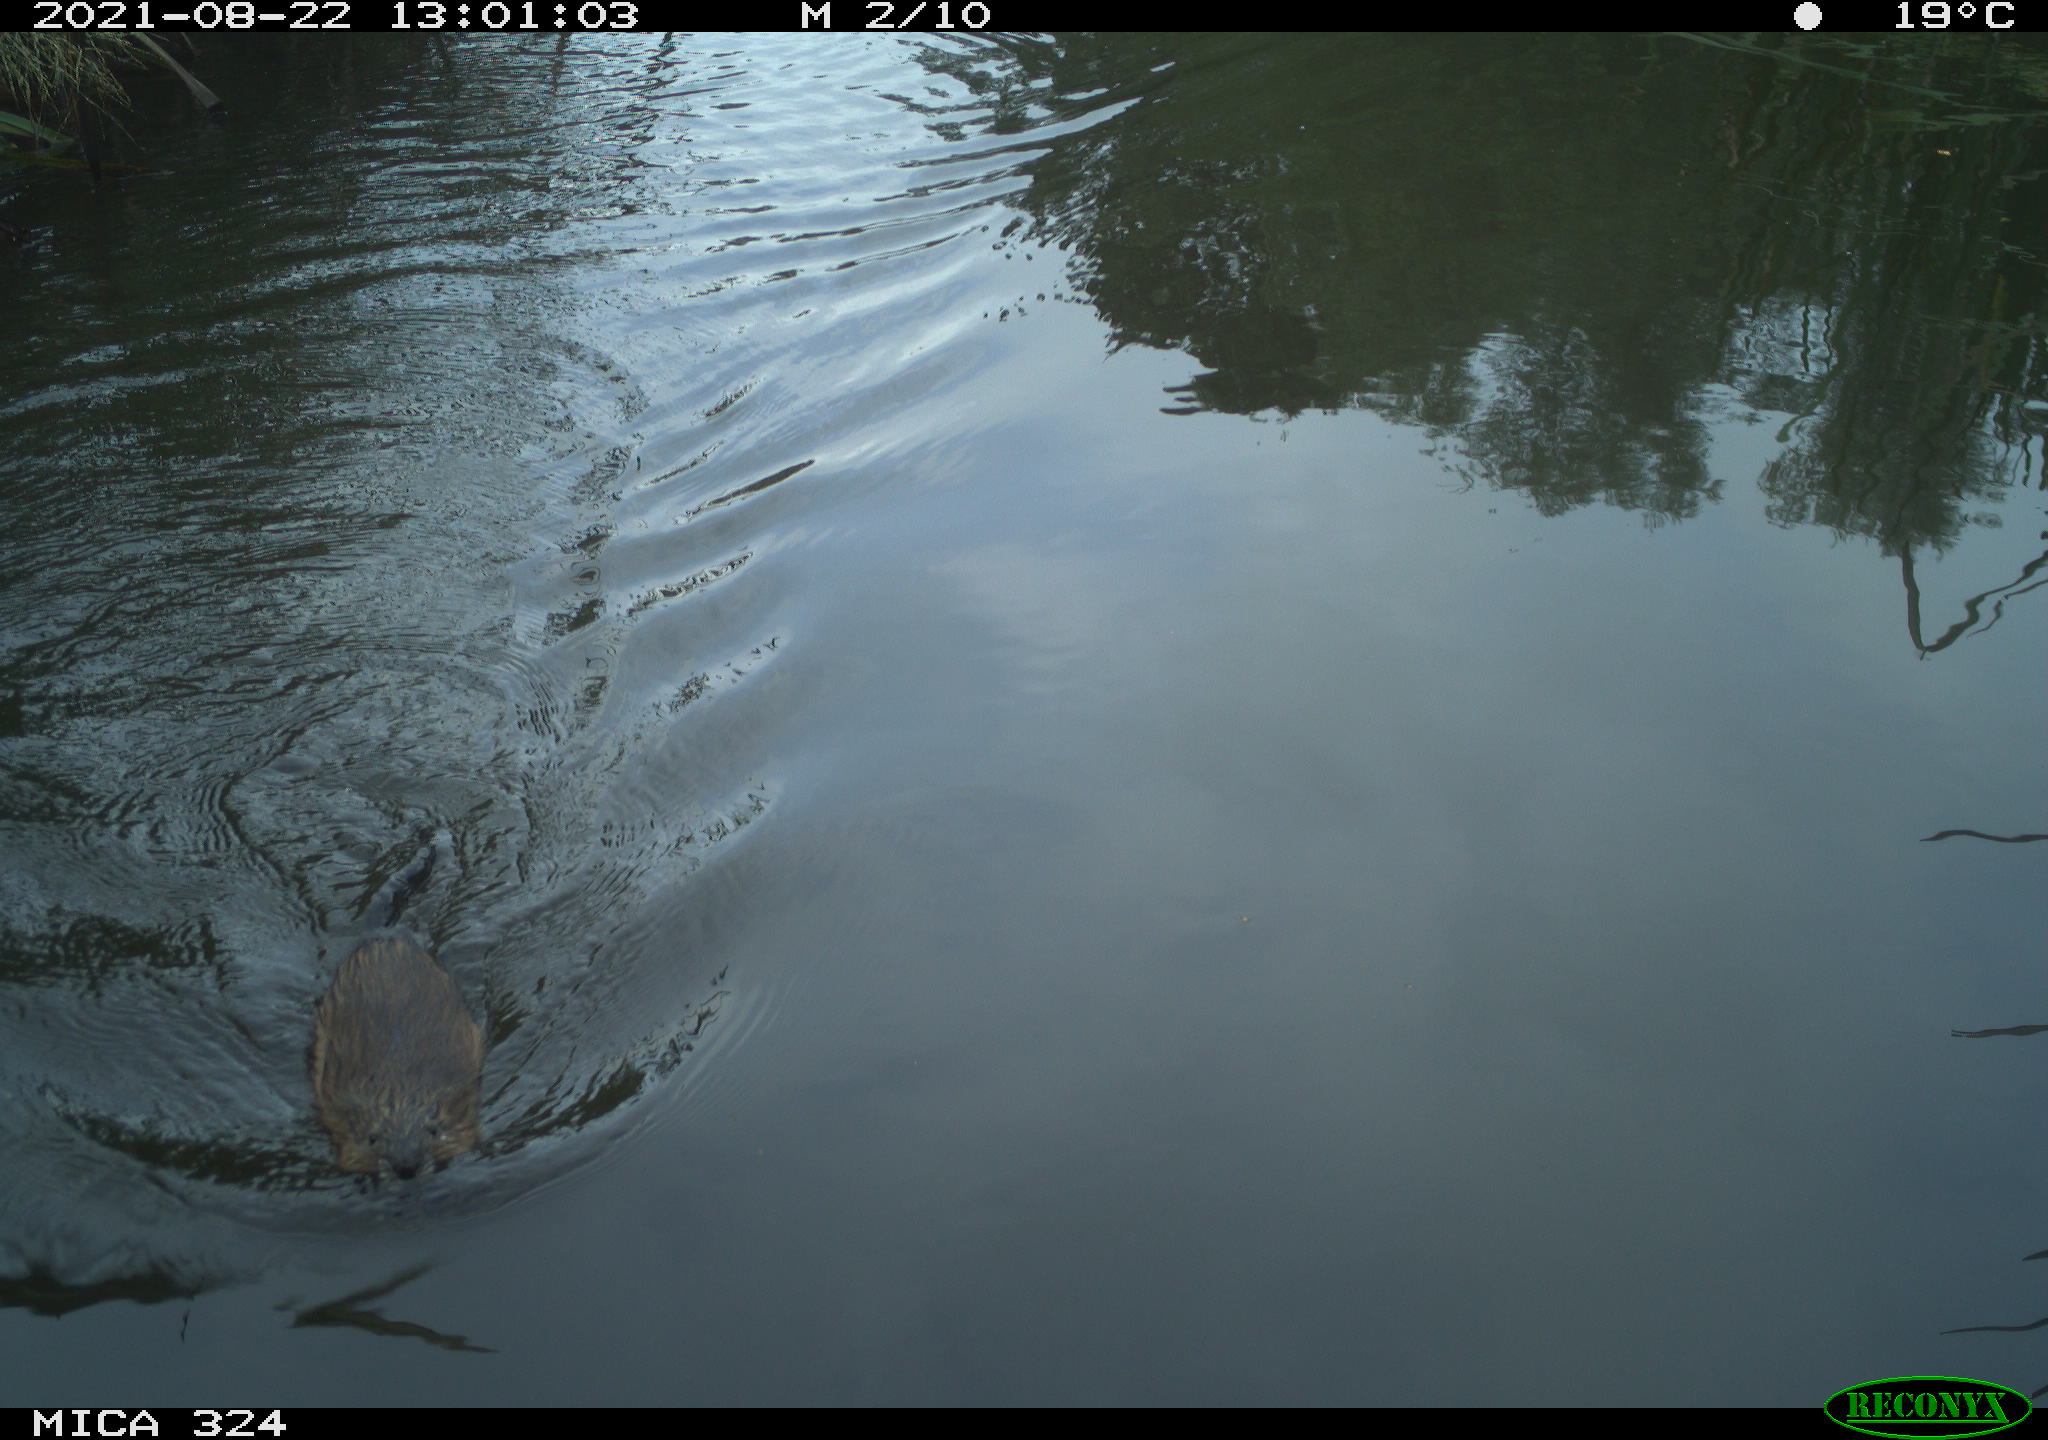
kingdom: Animalia
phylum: Chordata
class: Mammalia
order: Rodentia
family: Cricetidae
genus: Ondatra
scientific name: Ondatra zibethicus
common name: Muskrat
